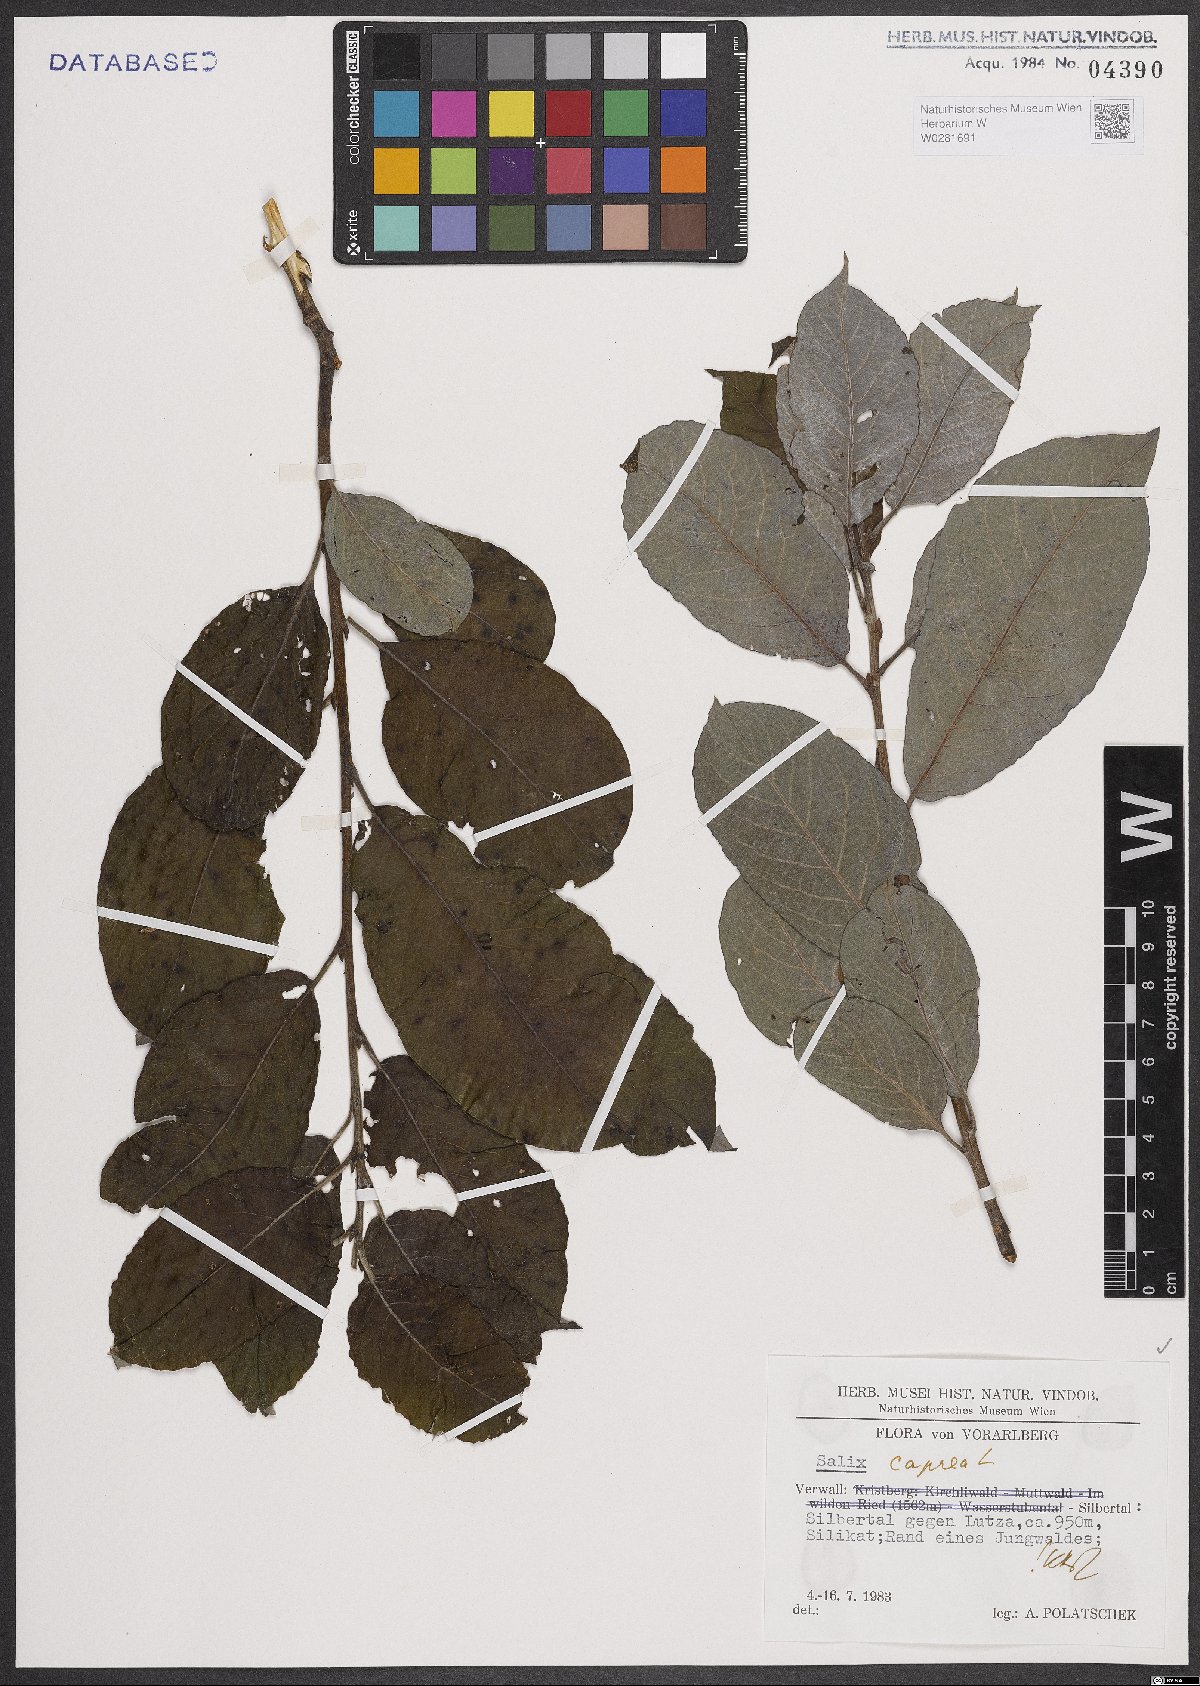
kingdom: Plantae
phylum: Tracheophyta
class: Magnoliopsida
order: Malpighiales
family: Salicaceae
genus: Salix
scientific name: Salix caprea
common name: Goat willow
